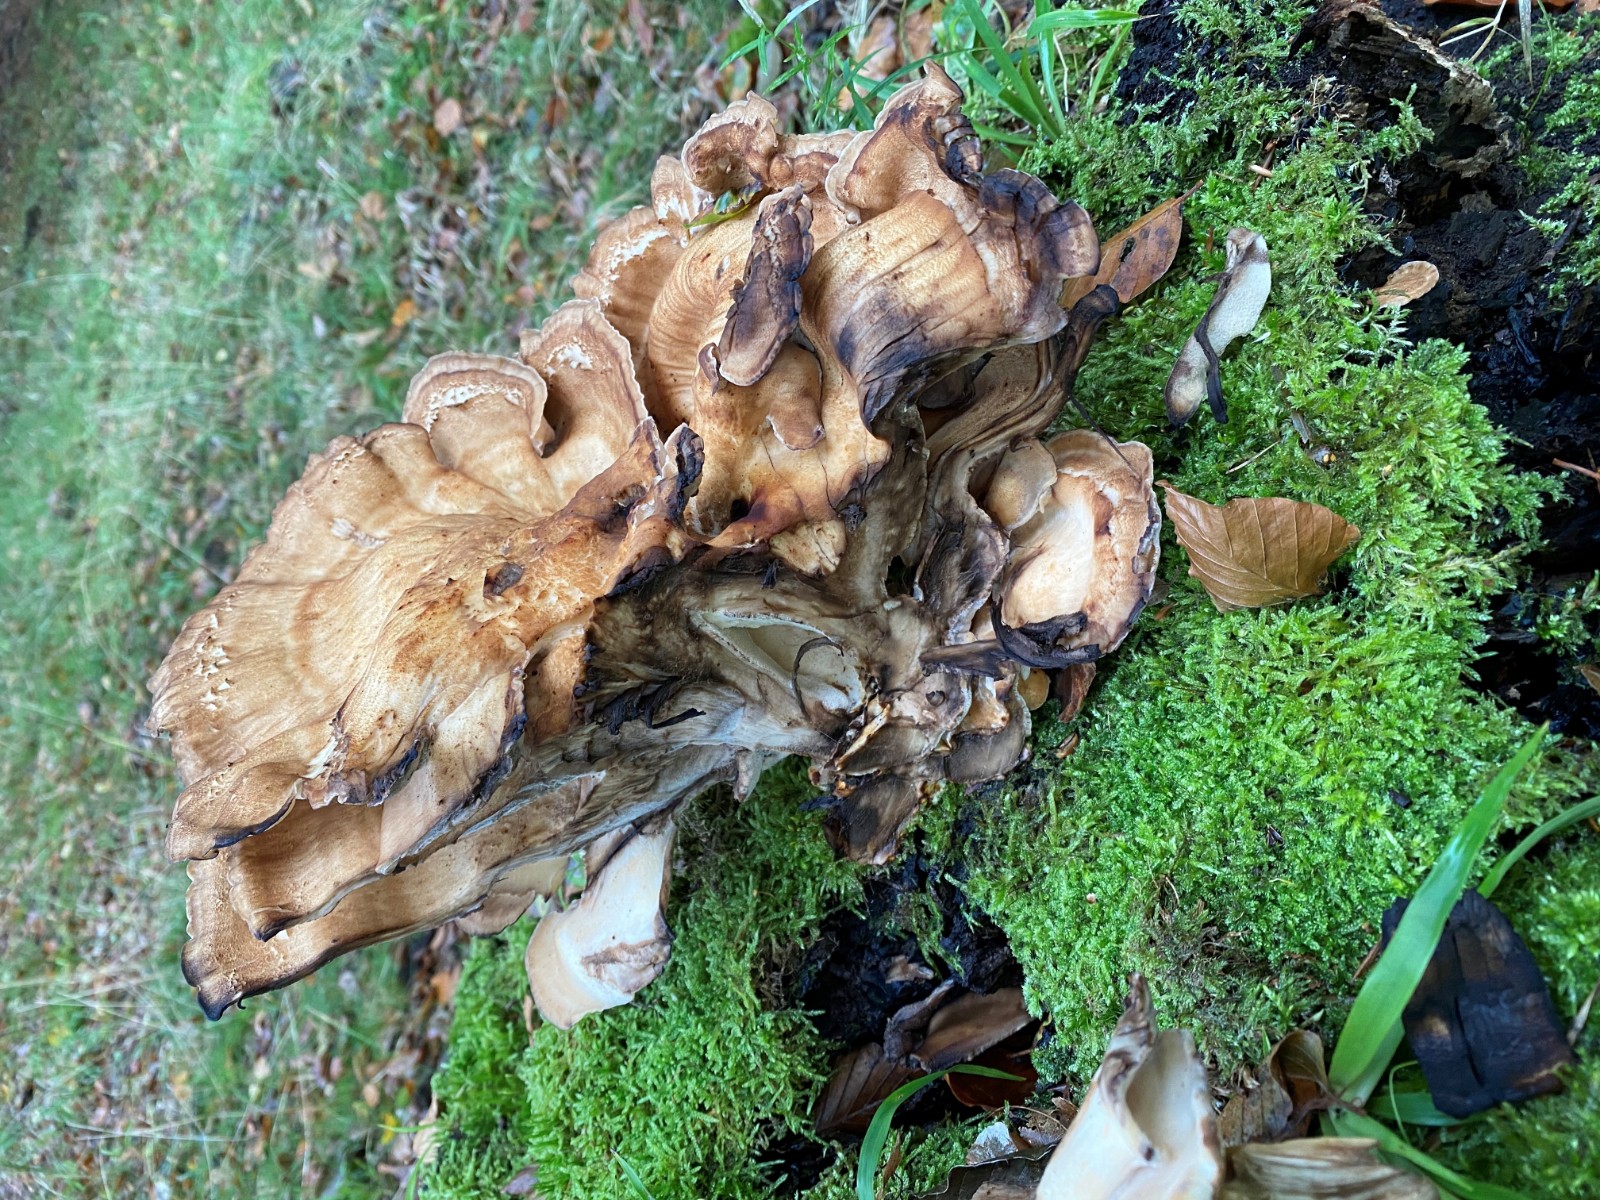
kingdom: Fungi
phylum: Basidiomycota
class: Agaricomycetes
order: Polyporales
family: Meripilaceae
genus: Meripilus
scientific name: Meripilus giganteus
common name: kæmpeporesvamp
